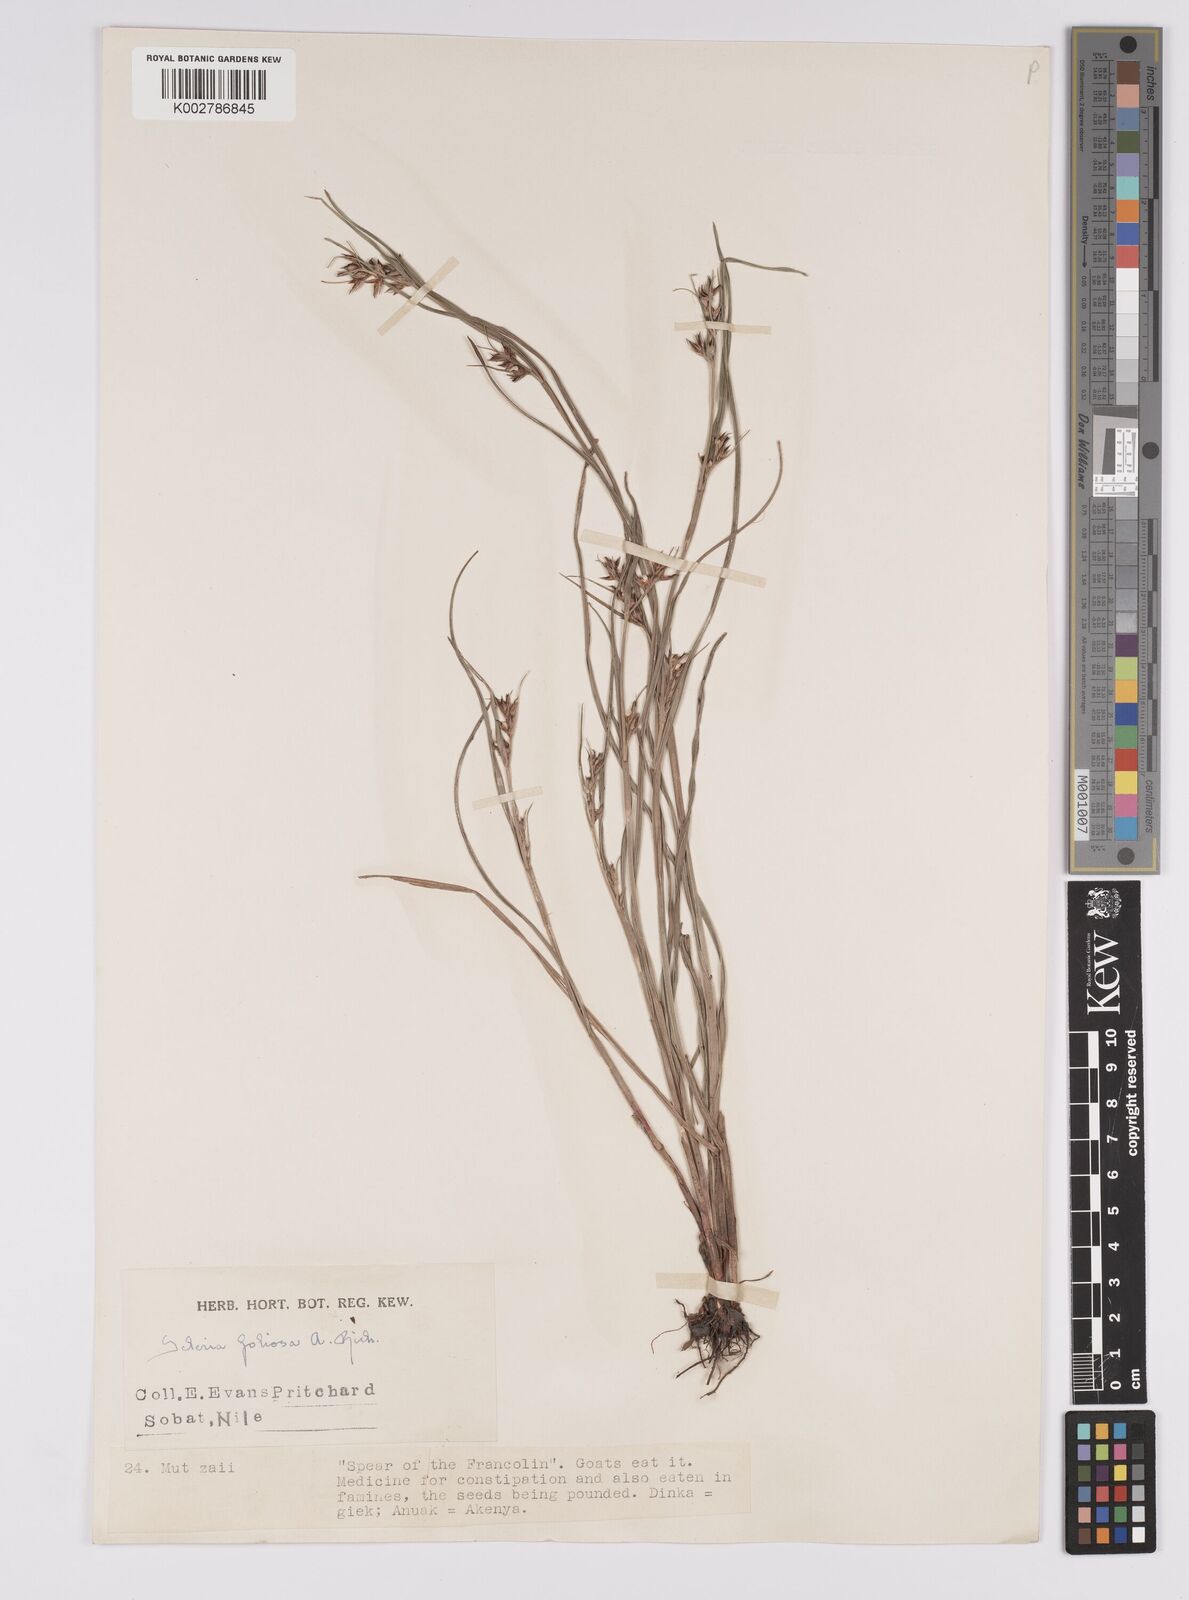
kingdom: Plantae
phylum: Tracheophyta
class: Liliopsida
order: Poales
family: Cyperaceae
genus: Scleria
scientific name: Scleria foliosa
